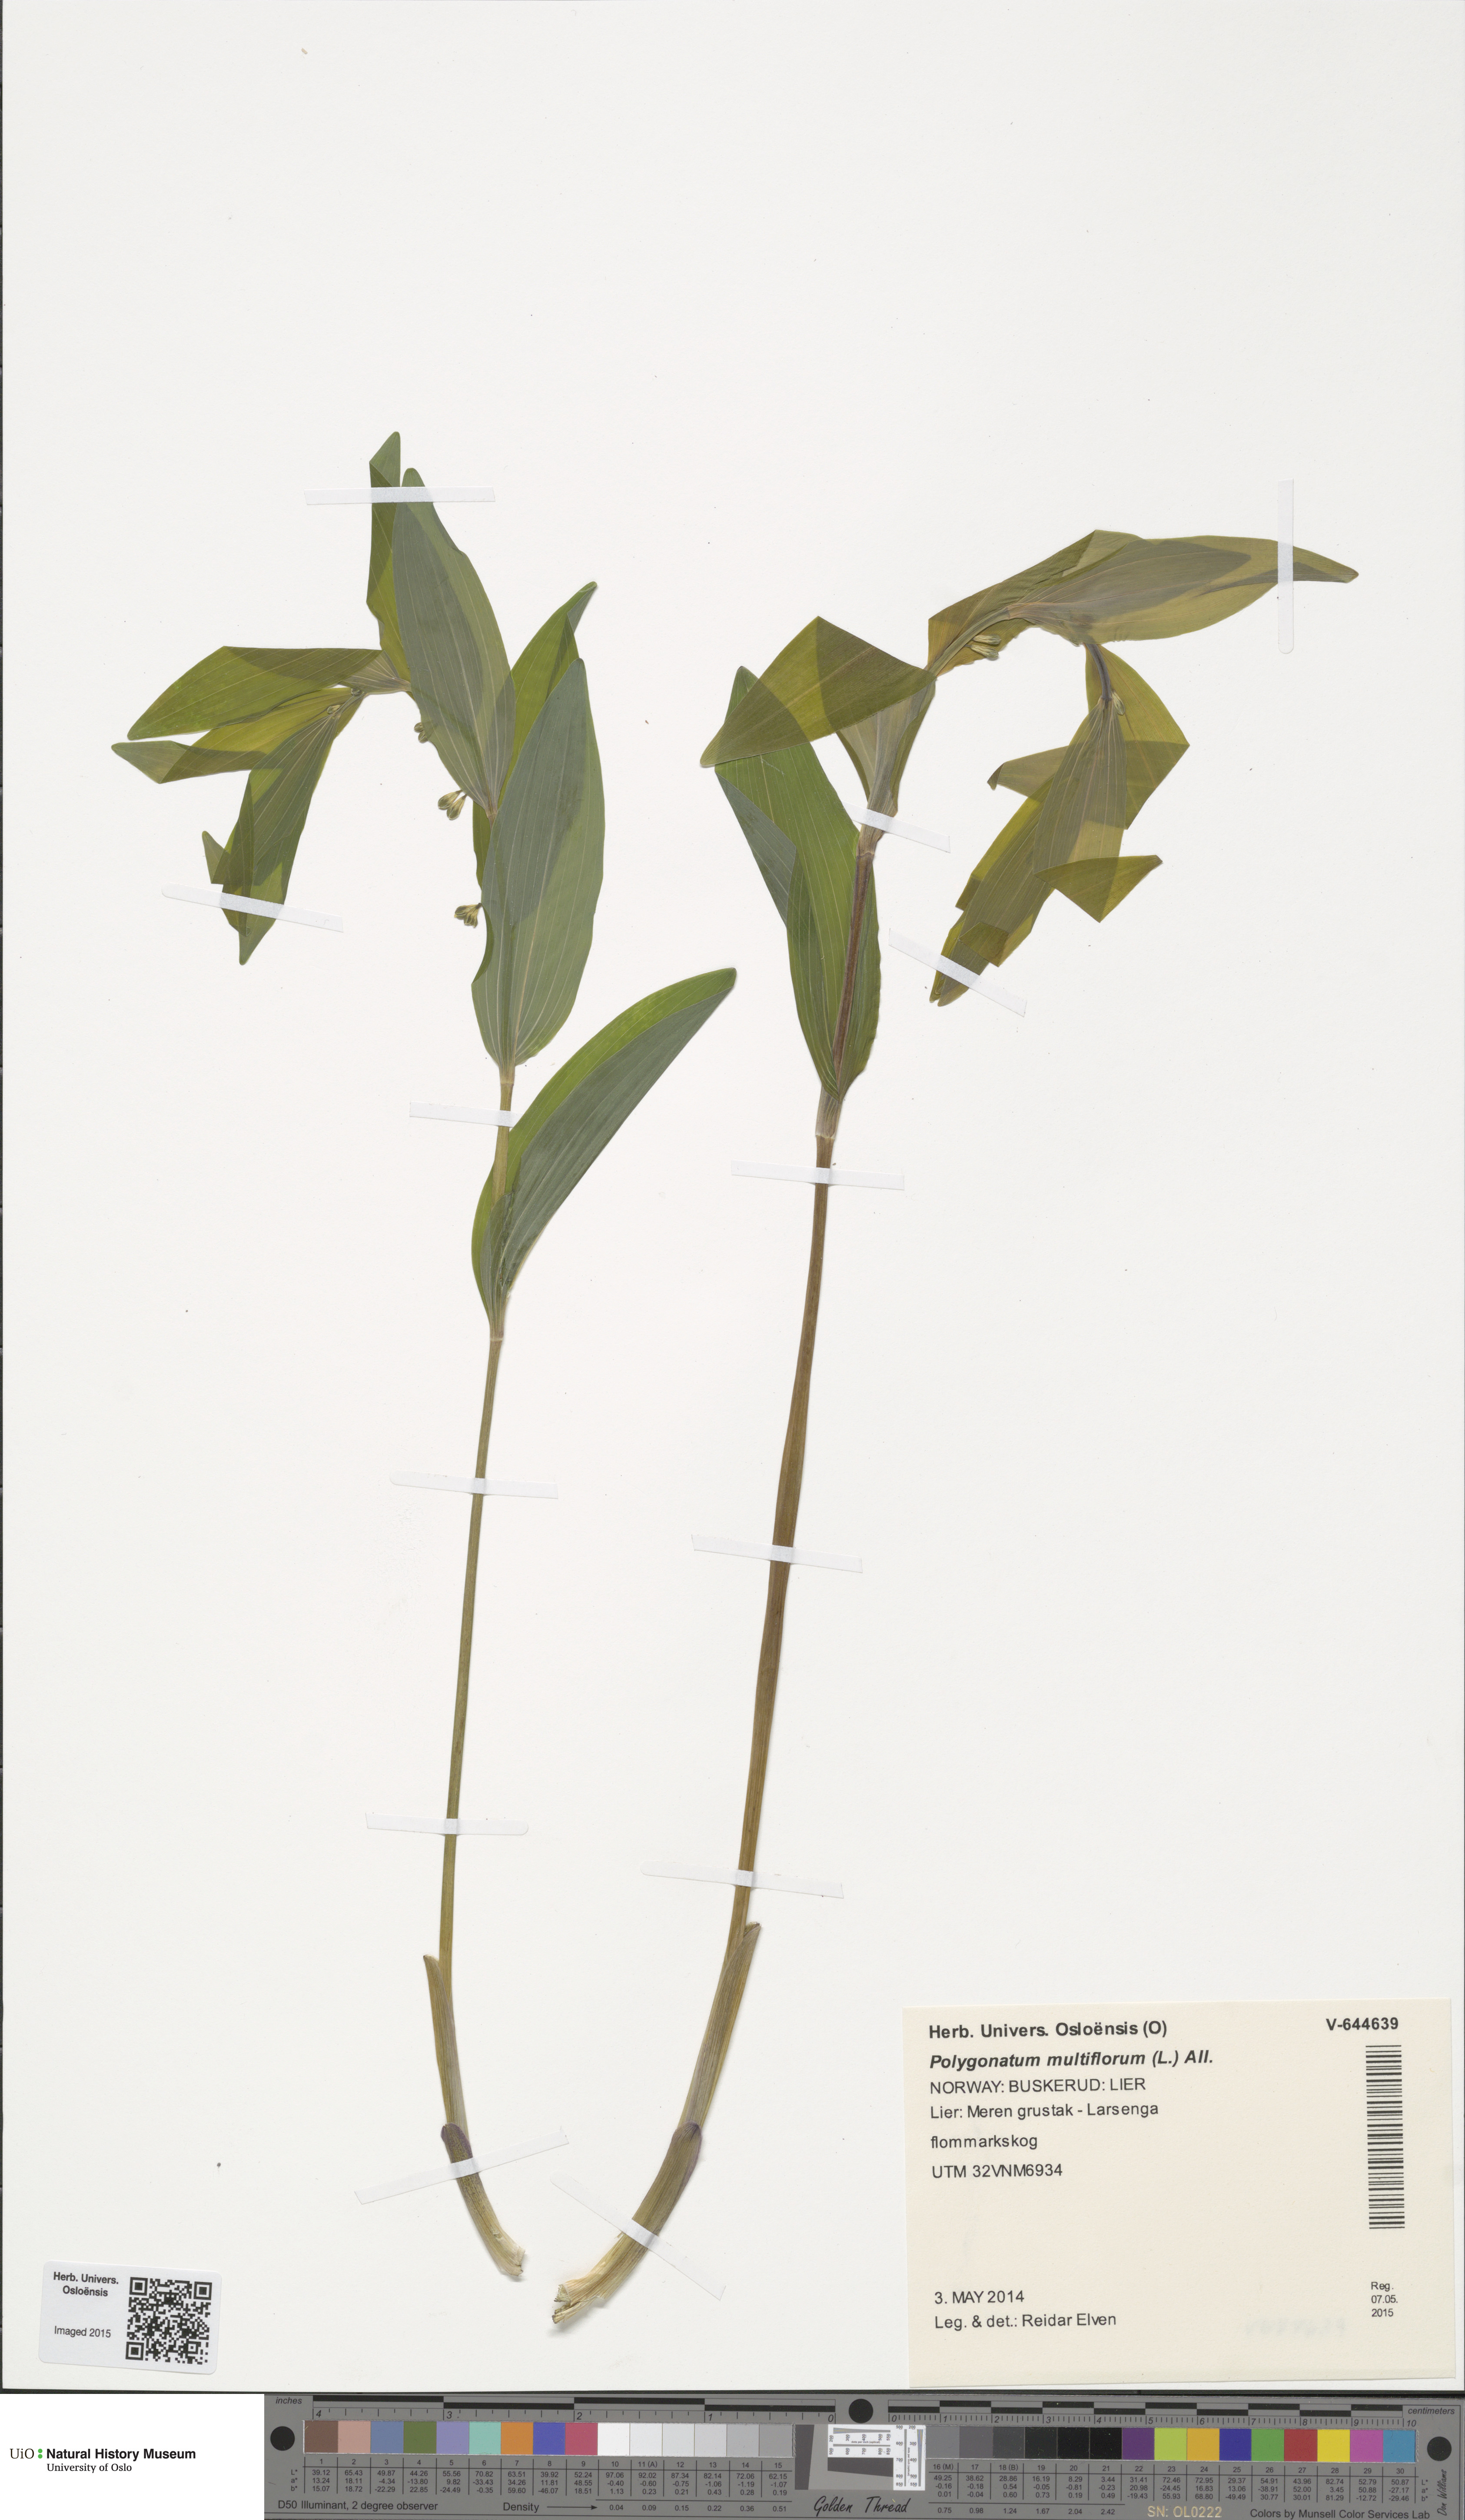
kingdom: Plantae
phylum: Tracheophyta
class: Liliopsida
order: Asparagales
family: Asparagaceae
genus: Polygonatum
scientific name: Polygonatum multiflorum
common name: Solomon's-seal
